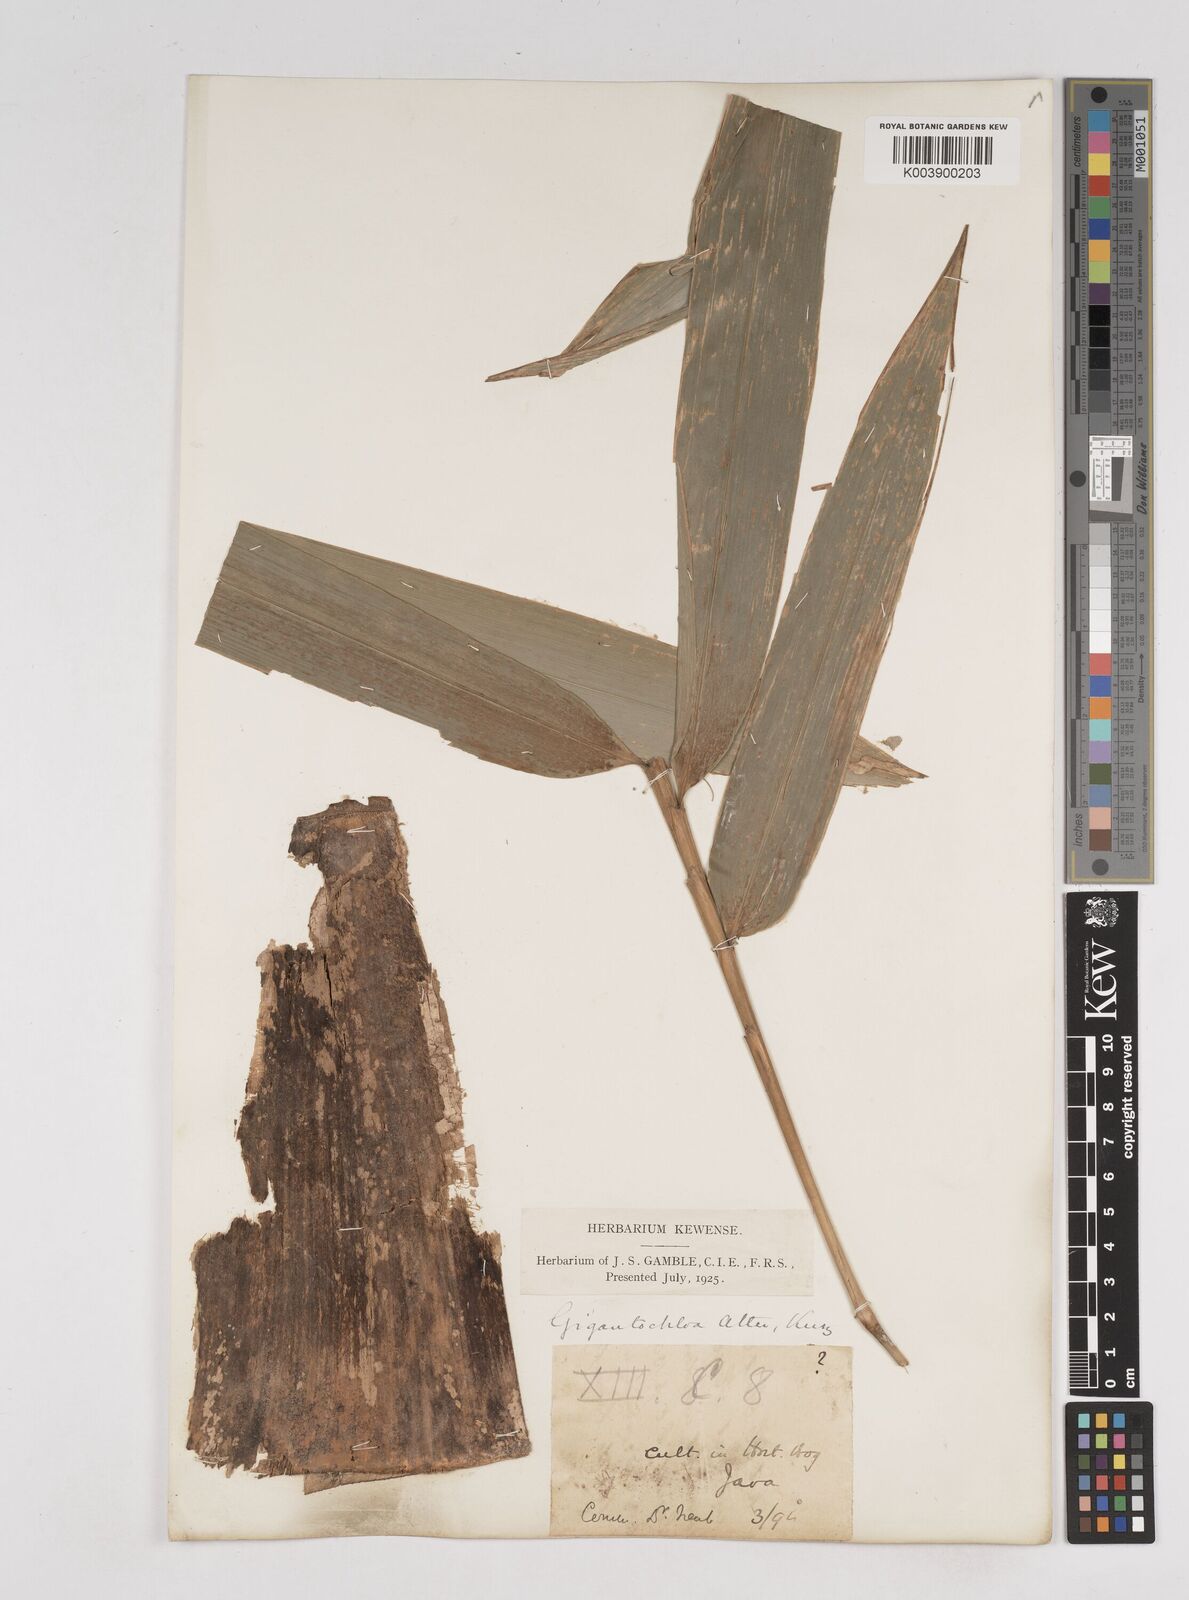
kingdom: Plantae
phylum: Tracheophyta
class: Liliopsida
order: Poales
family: Poaceae
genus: Gigantochloa
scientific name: Gigantochloa atter
